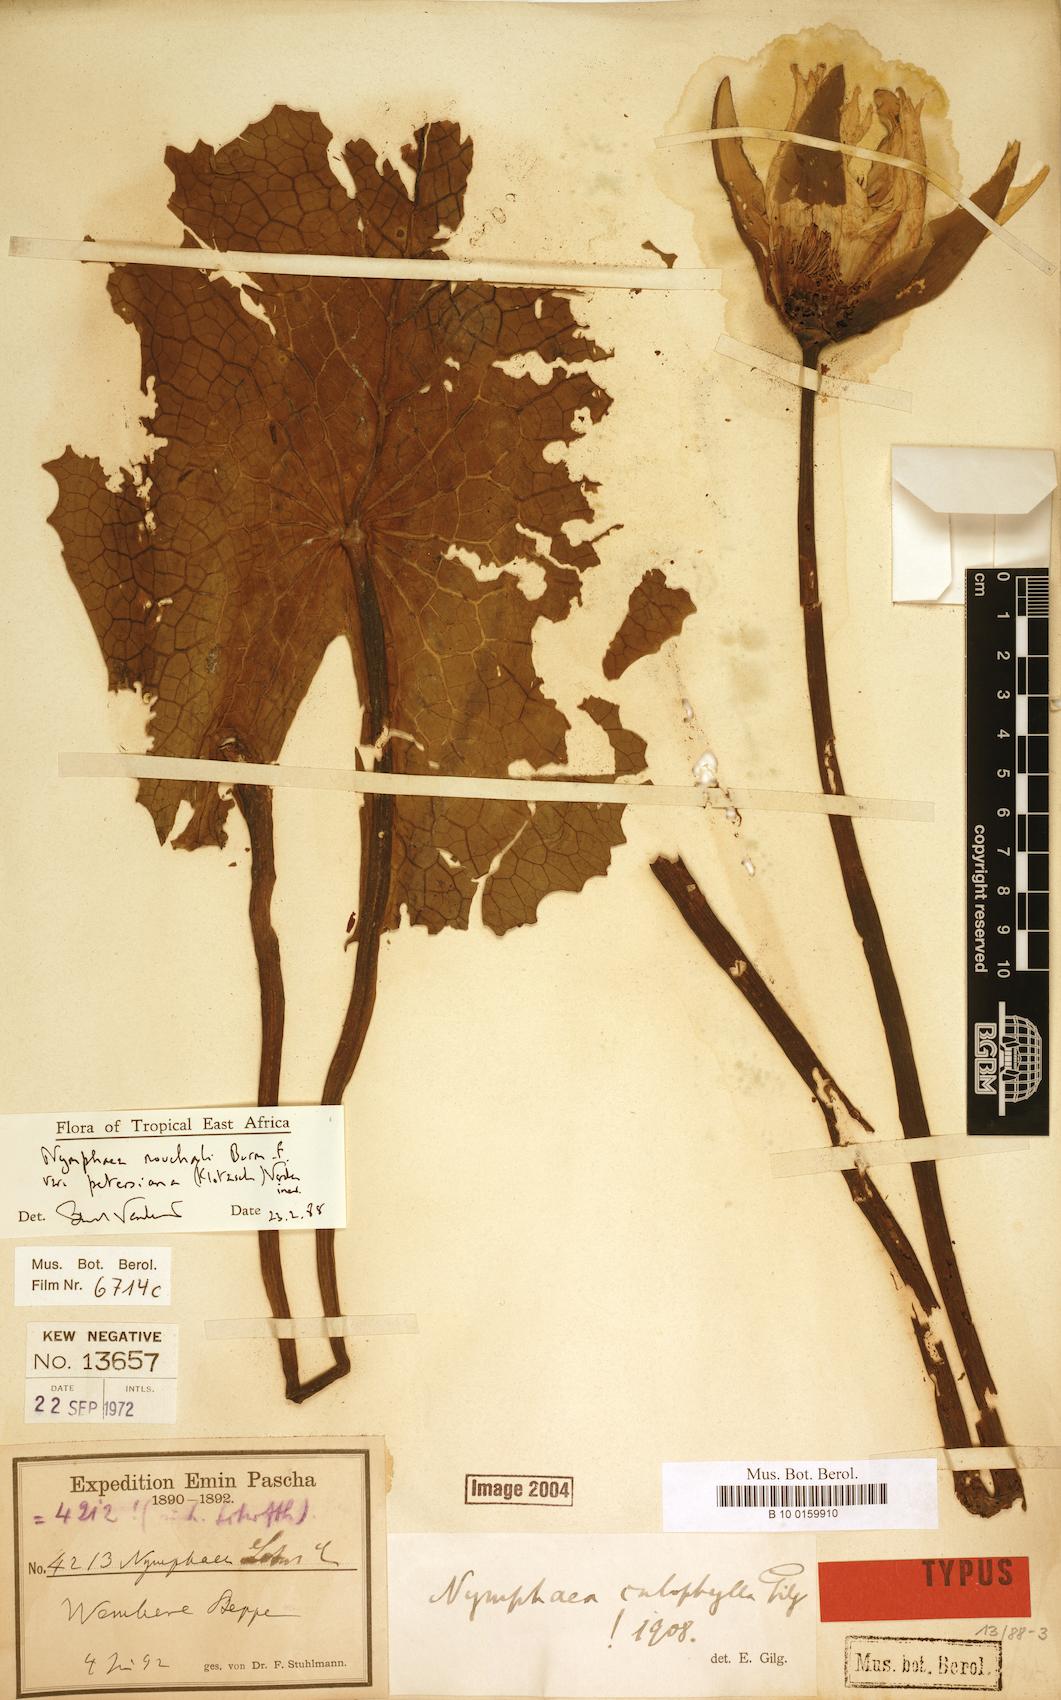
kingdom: Plantae
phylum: Tracheophyta
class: Magnoliopsida
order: Nymphaeales
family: Nymphaeaceae
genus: Nymphaea
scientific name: Nymphaea nouchali
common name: Blue lotus
